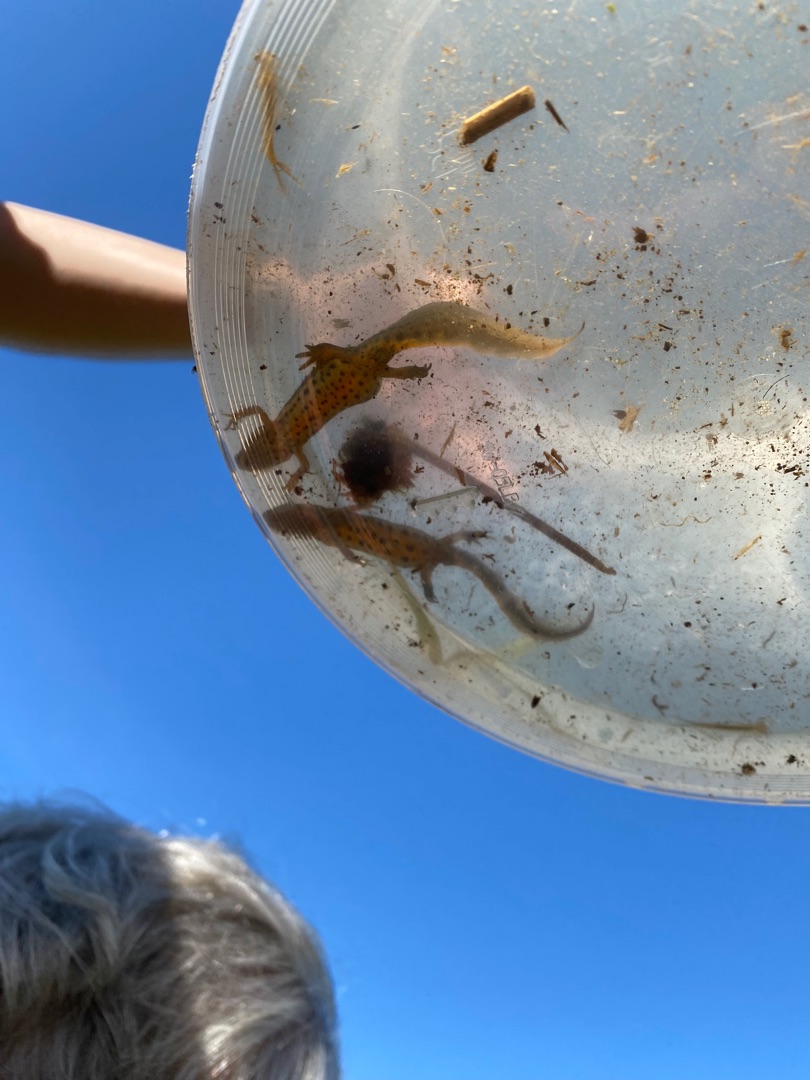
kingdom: Animalia
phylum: Chordata
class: Amphibia
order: Caudata
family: Salamandridae
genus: Lissotriton
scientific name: Lissotriton vulgaris
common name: Lille vandsalamander
